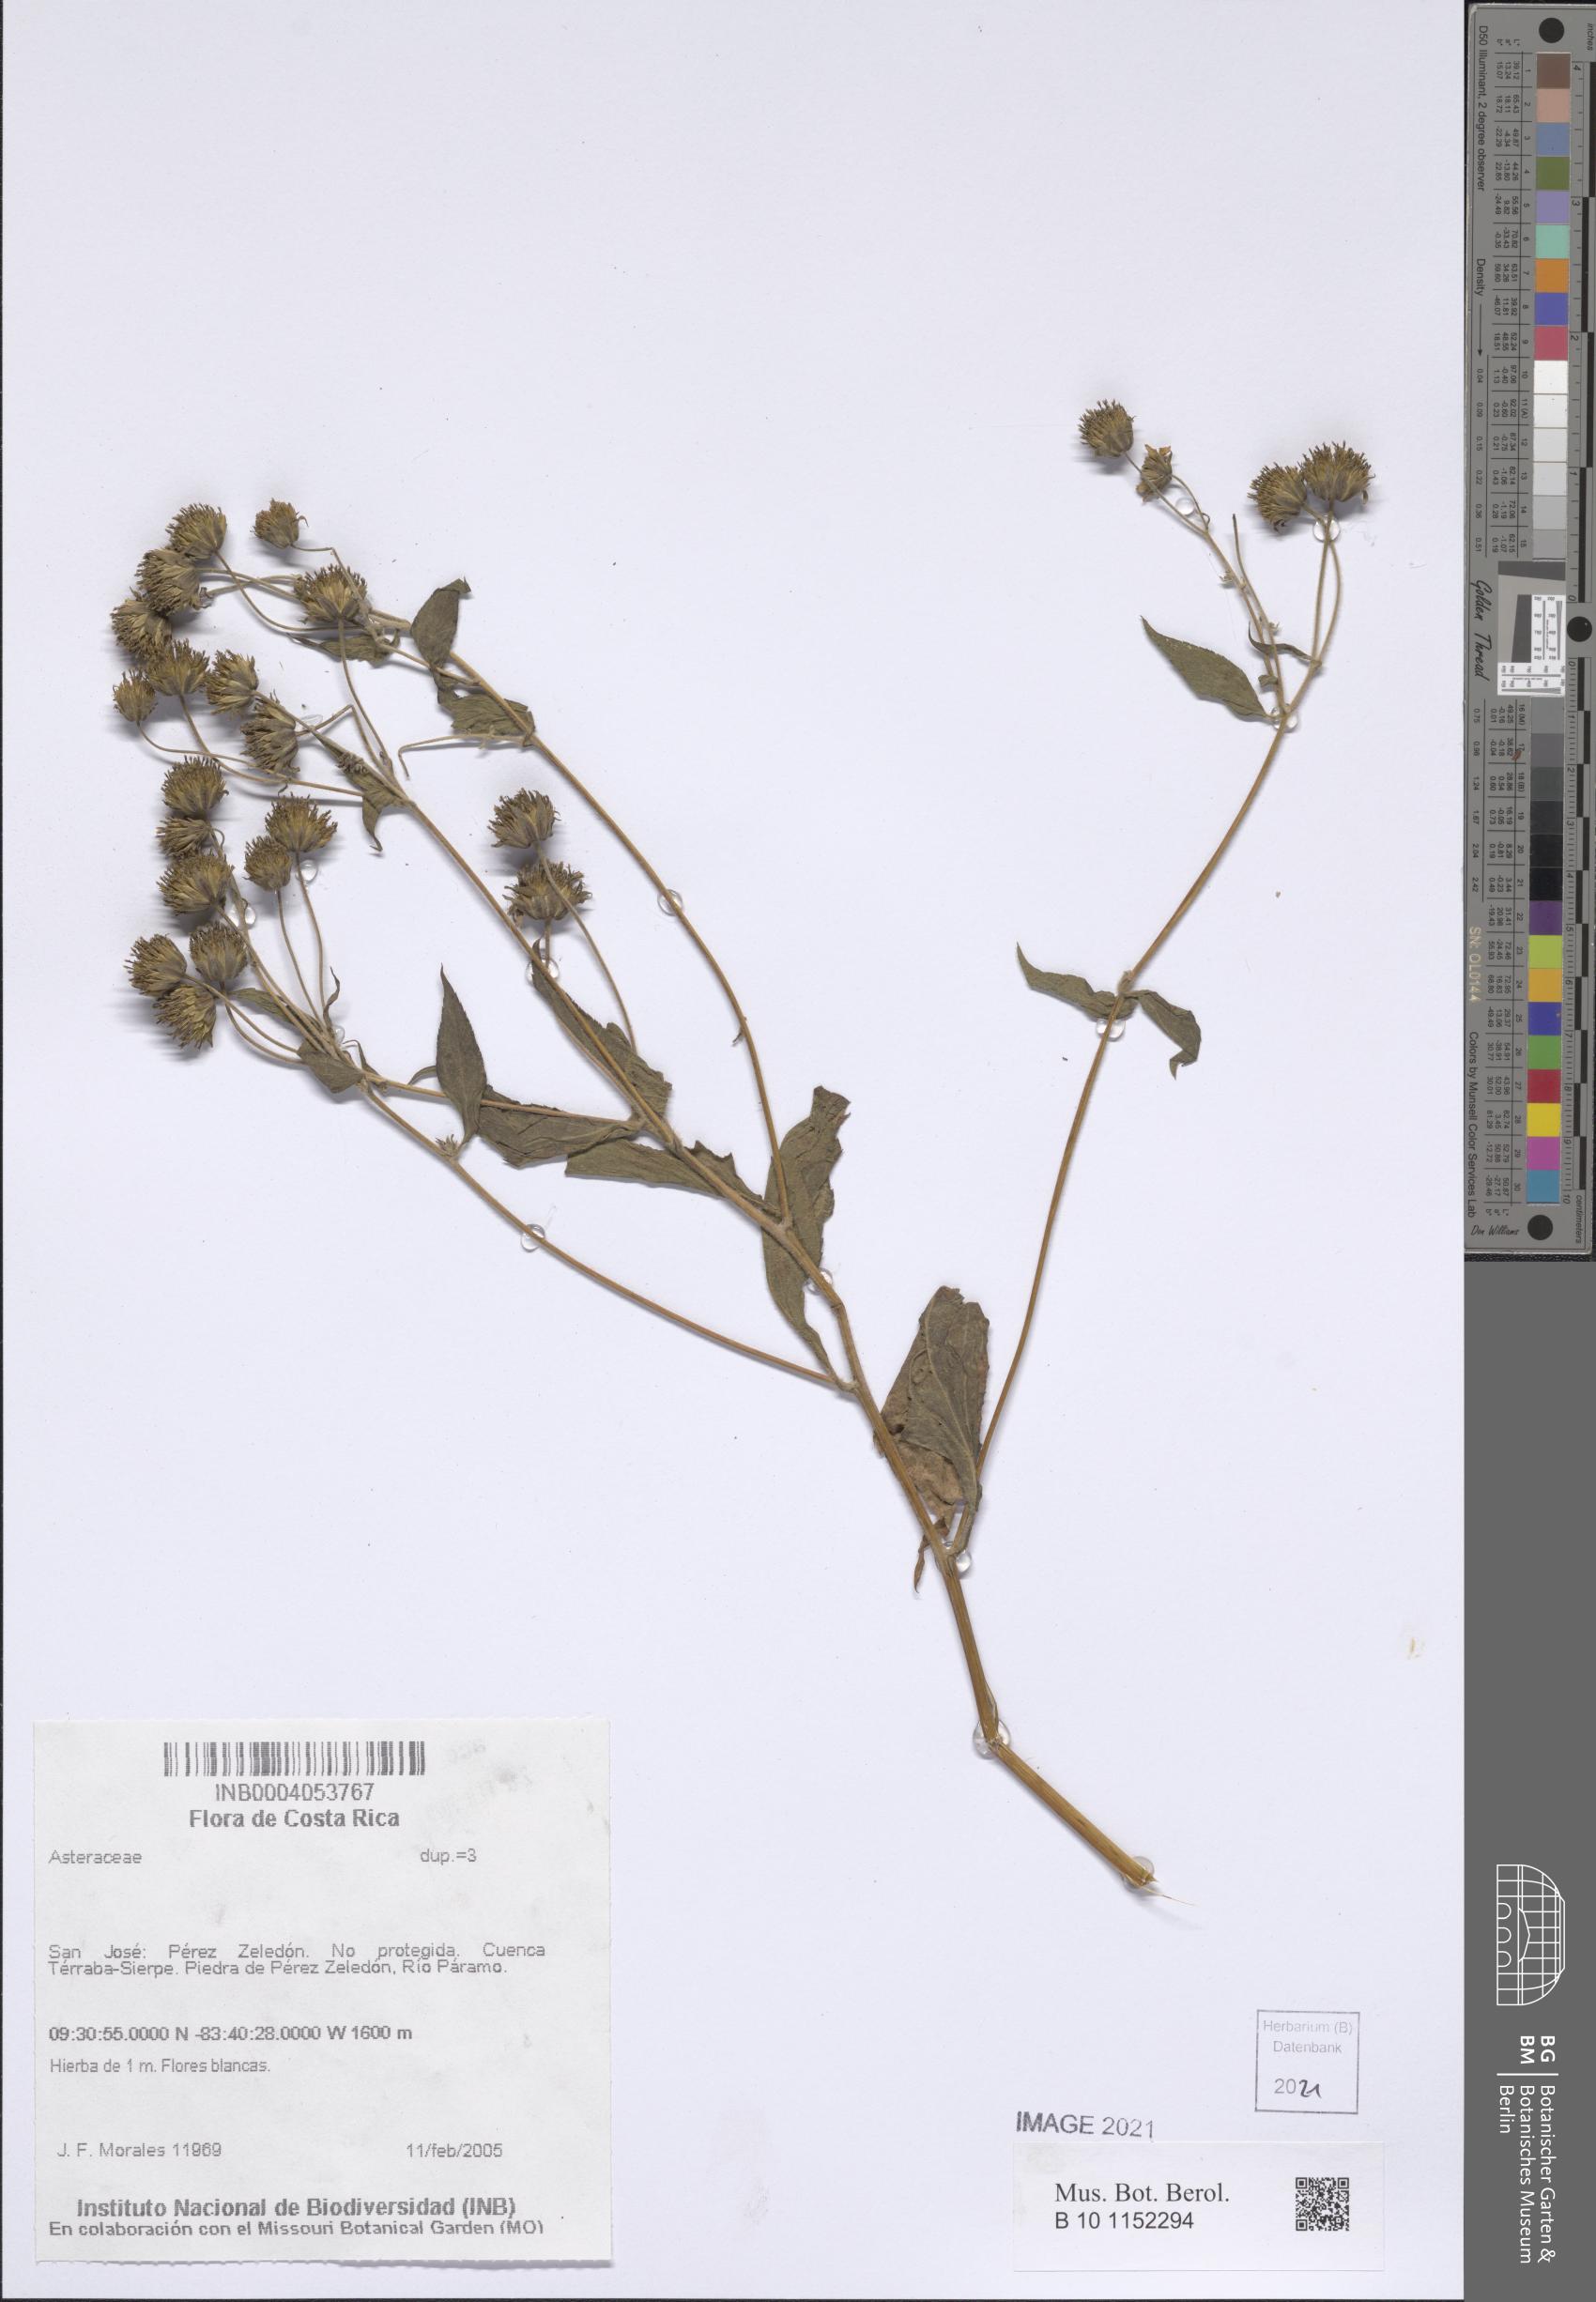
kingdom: Plantae
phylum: Tracheophyta
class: Magnoliopsida
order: Asterales
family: Asteraceae
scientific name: Asteraceae
